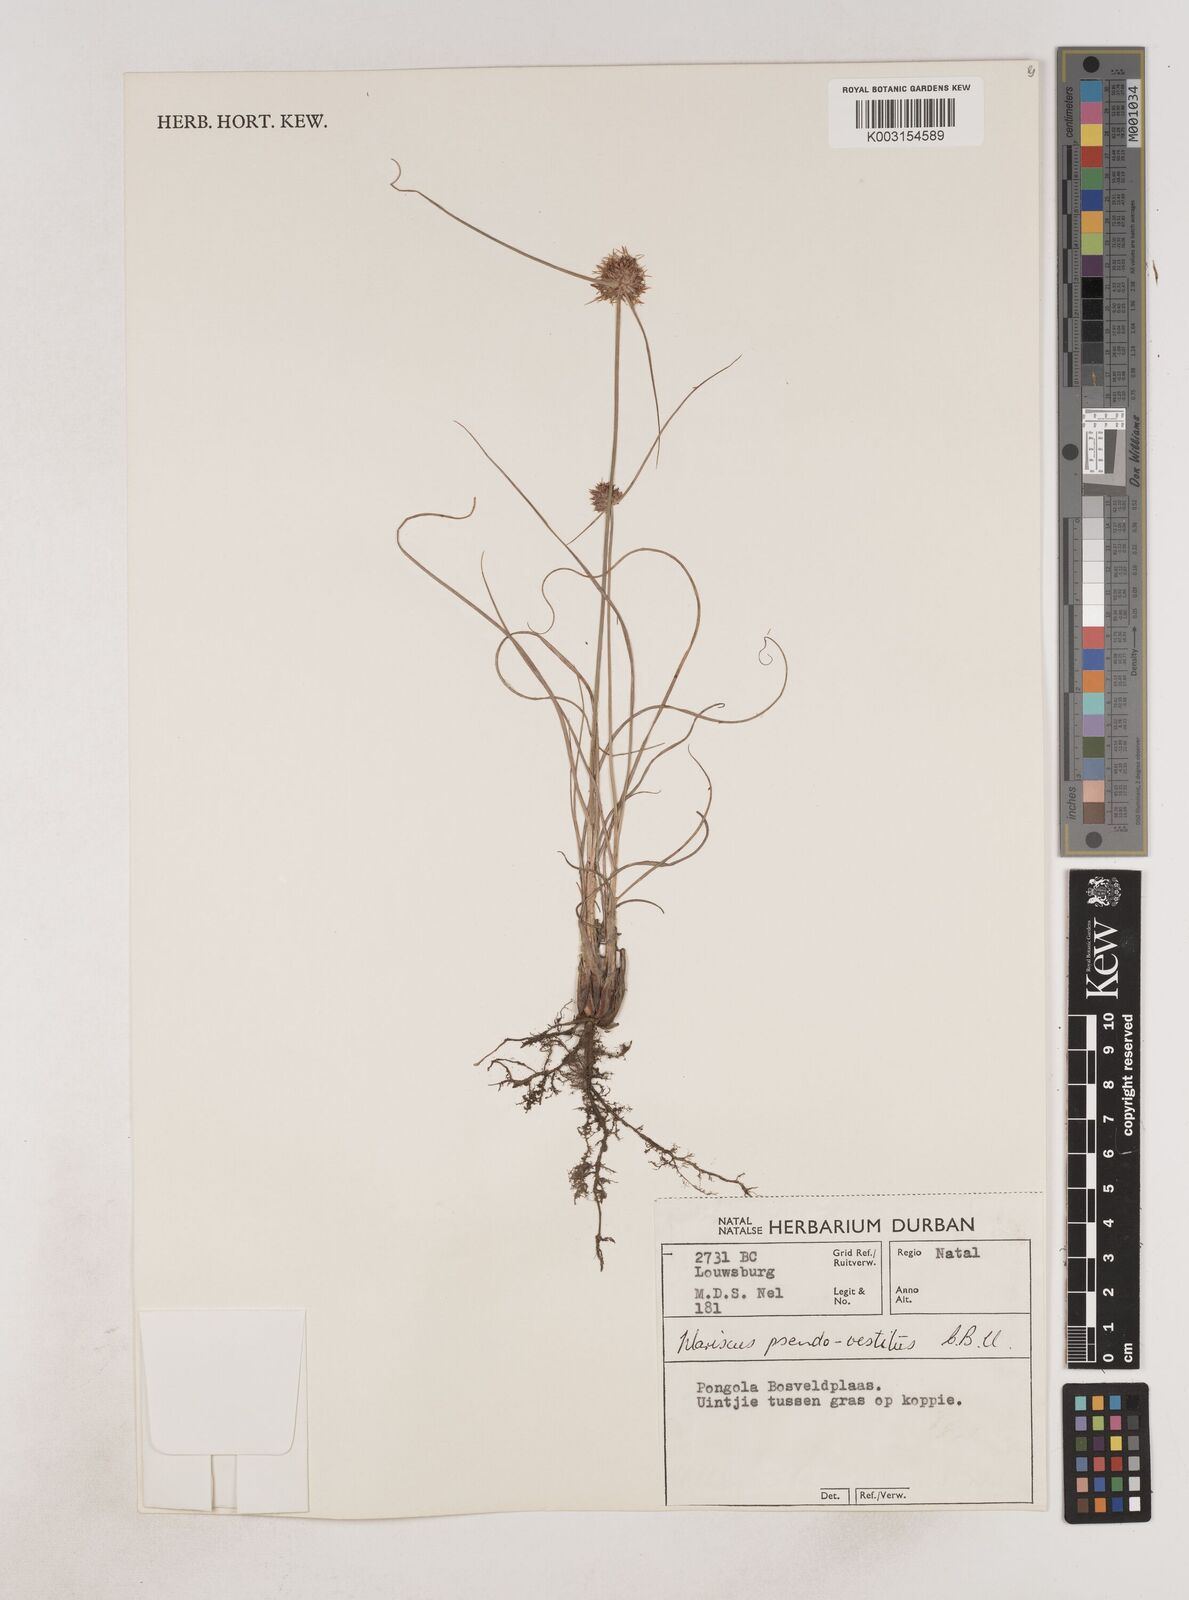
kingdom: Plantae
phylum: Tracheophyta
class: Liliopsida
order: Poales
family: Cyperaceae
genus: Cyperus
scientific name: Cyperus pseudovestitus
